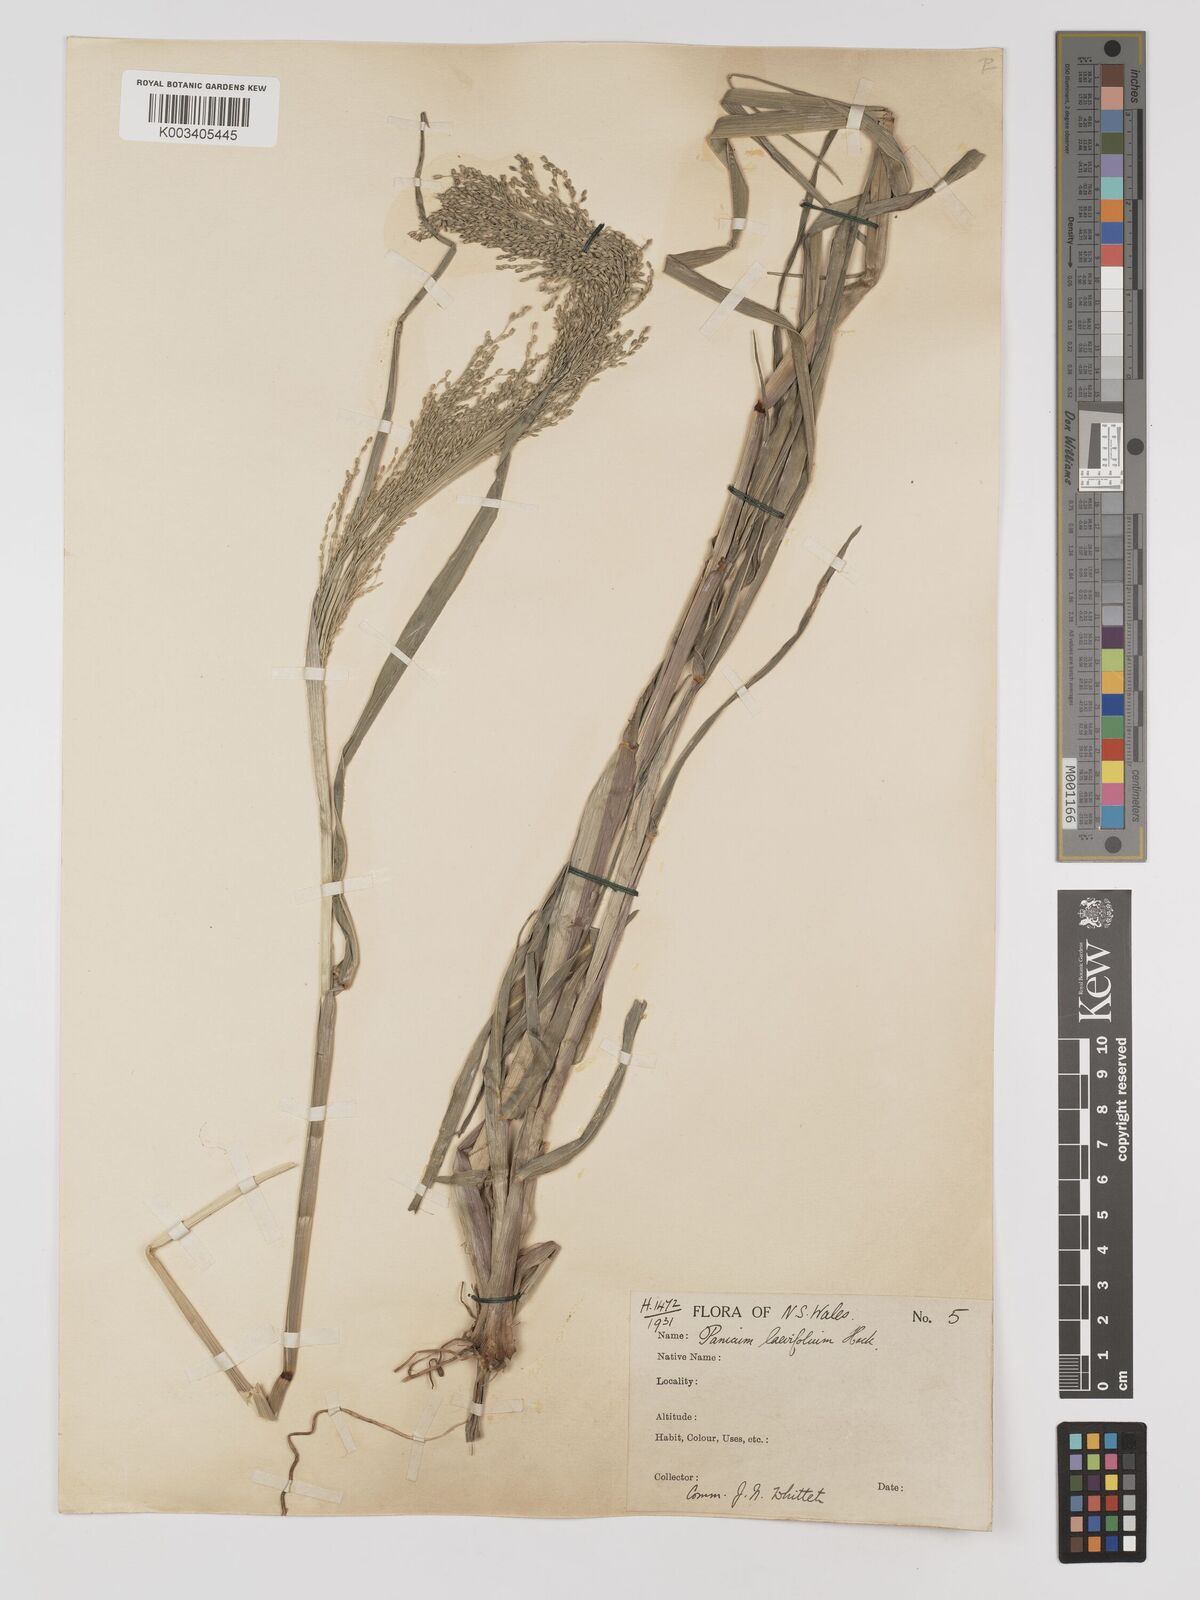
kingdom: Plantae
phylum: Tracheophyta
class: Liliopsida
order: Poales
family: Poaceae
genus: Panicum
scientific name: Panicum schinzii
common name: Sweet grass
